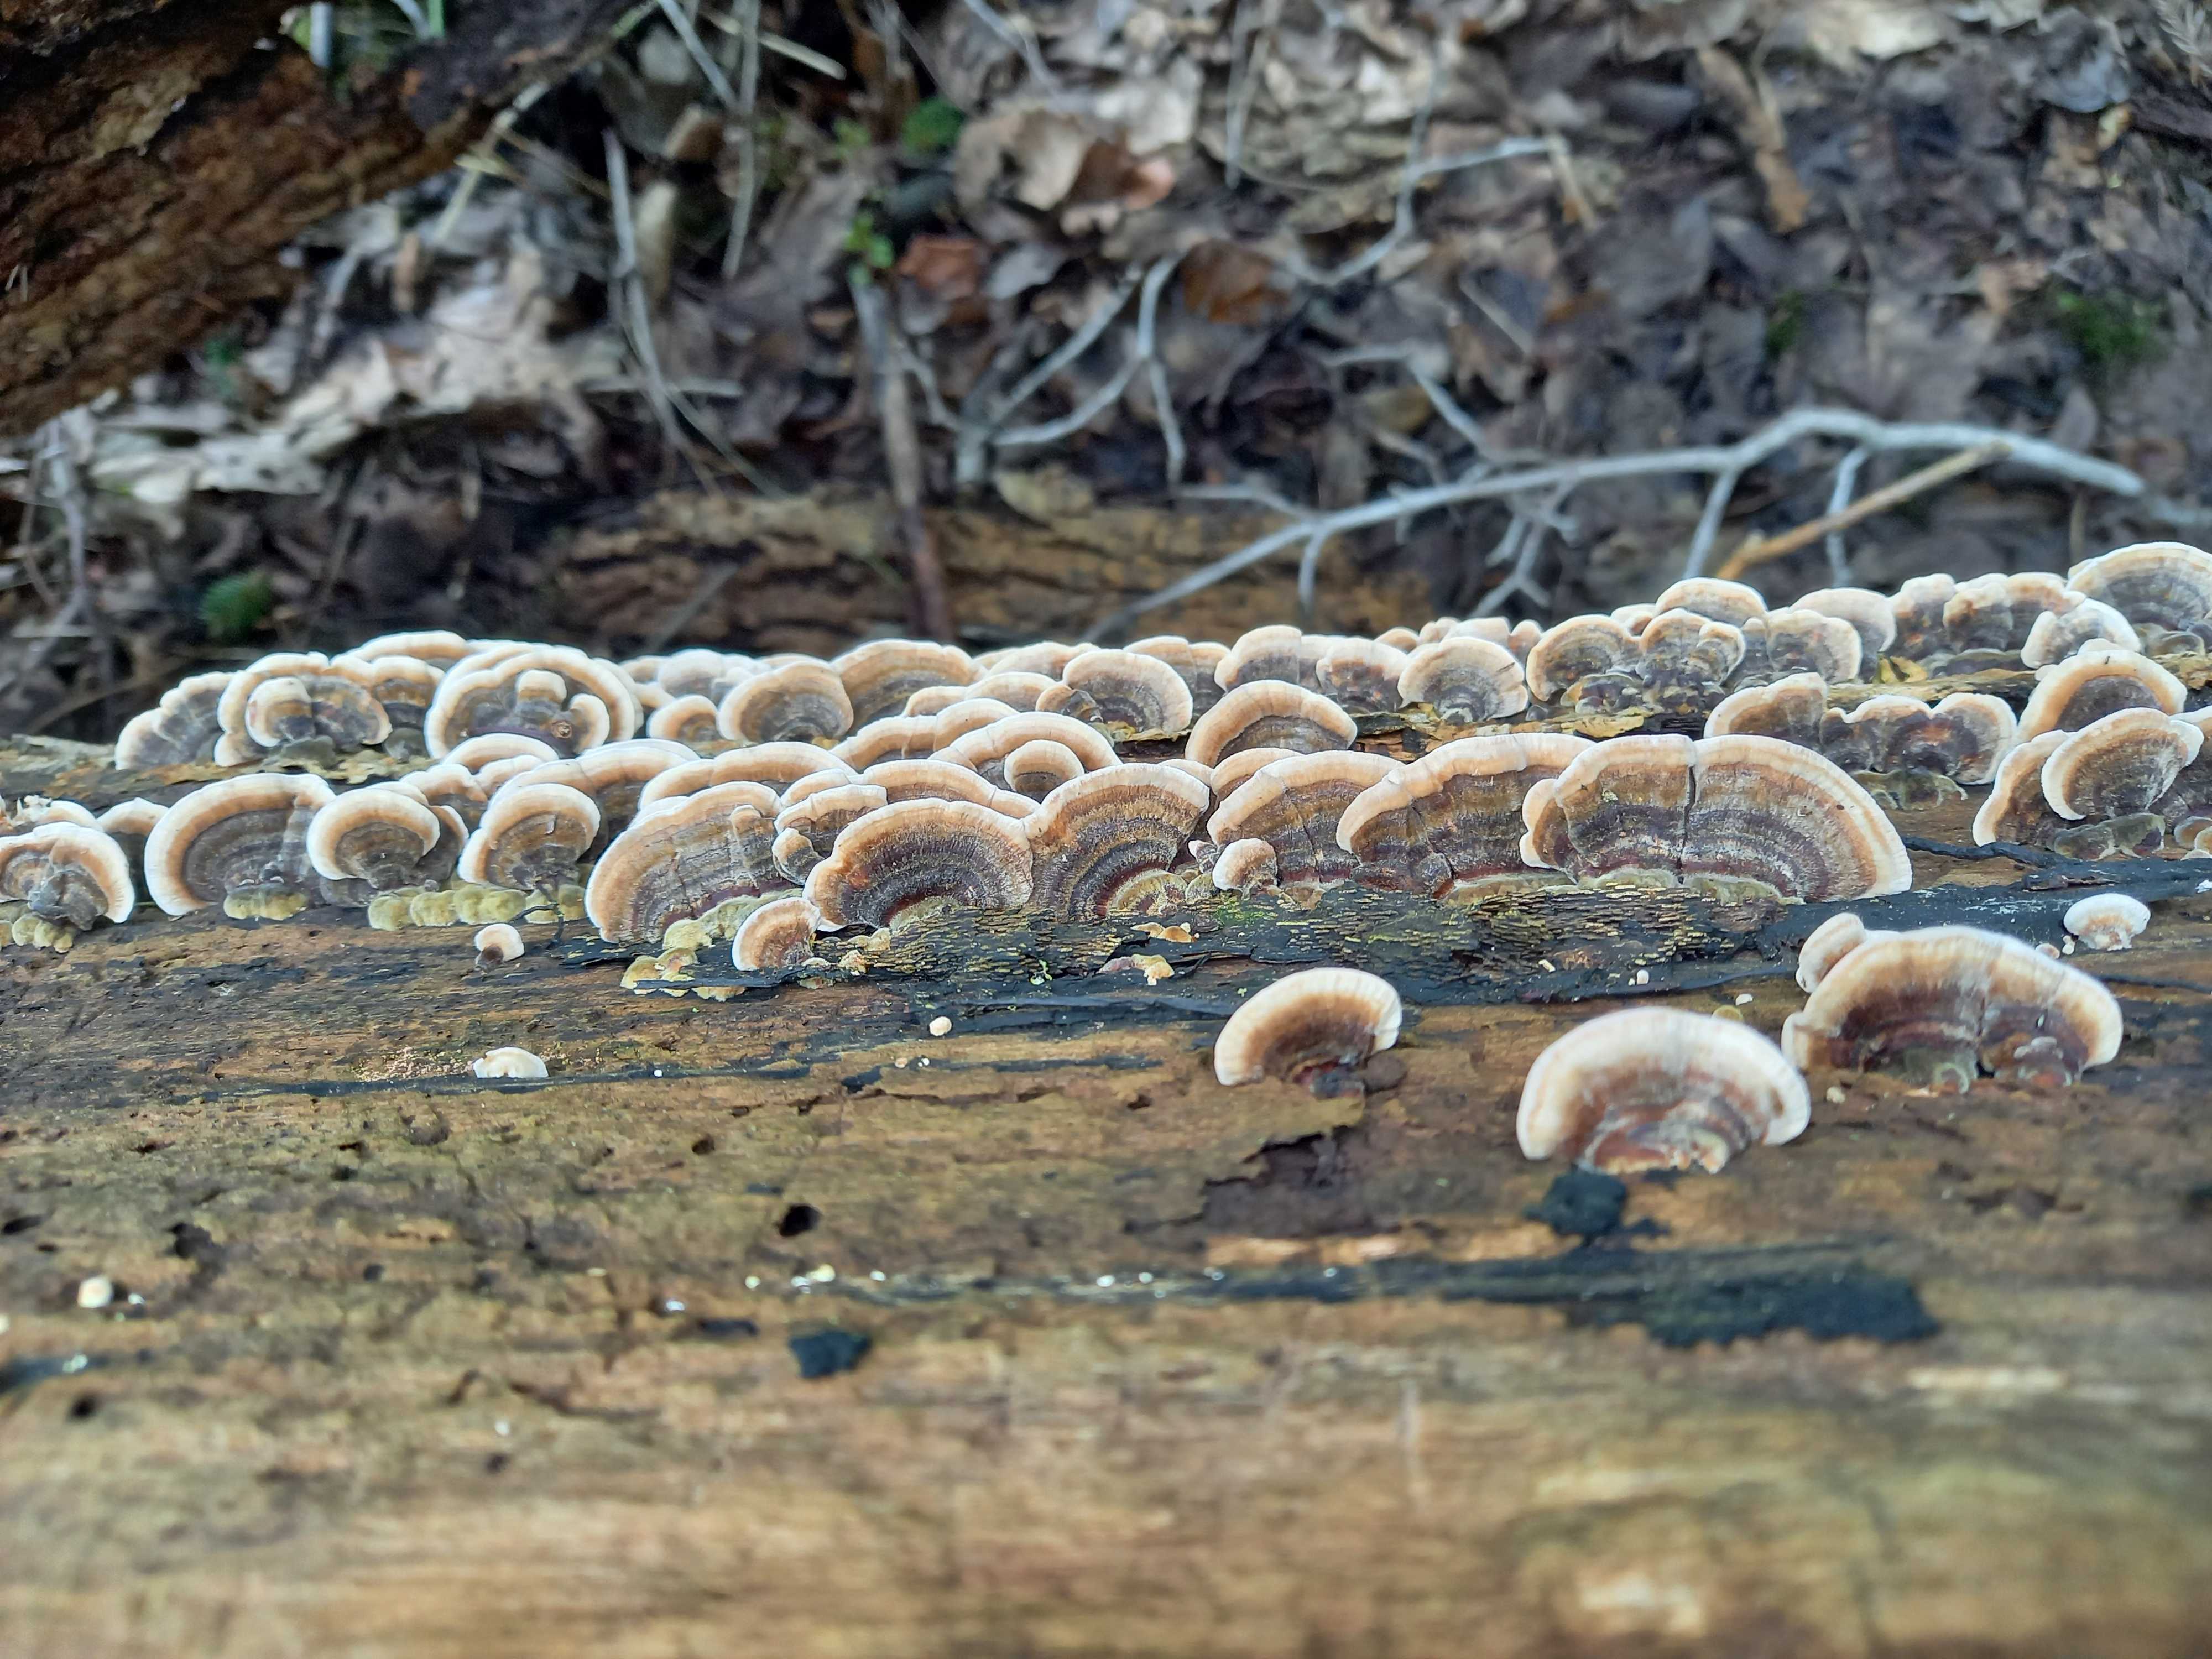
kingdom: Fungi
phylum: Basidiomycota
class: Agaricomycetes
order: Polyporales
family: Polyporaceae
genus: Trametes
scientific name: Trametes versicolor
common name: broget læderporesvamp
